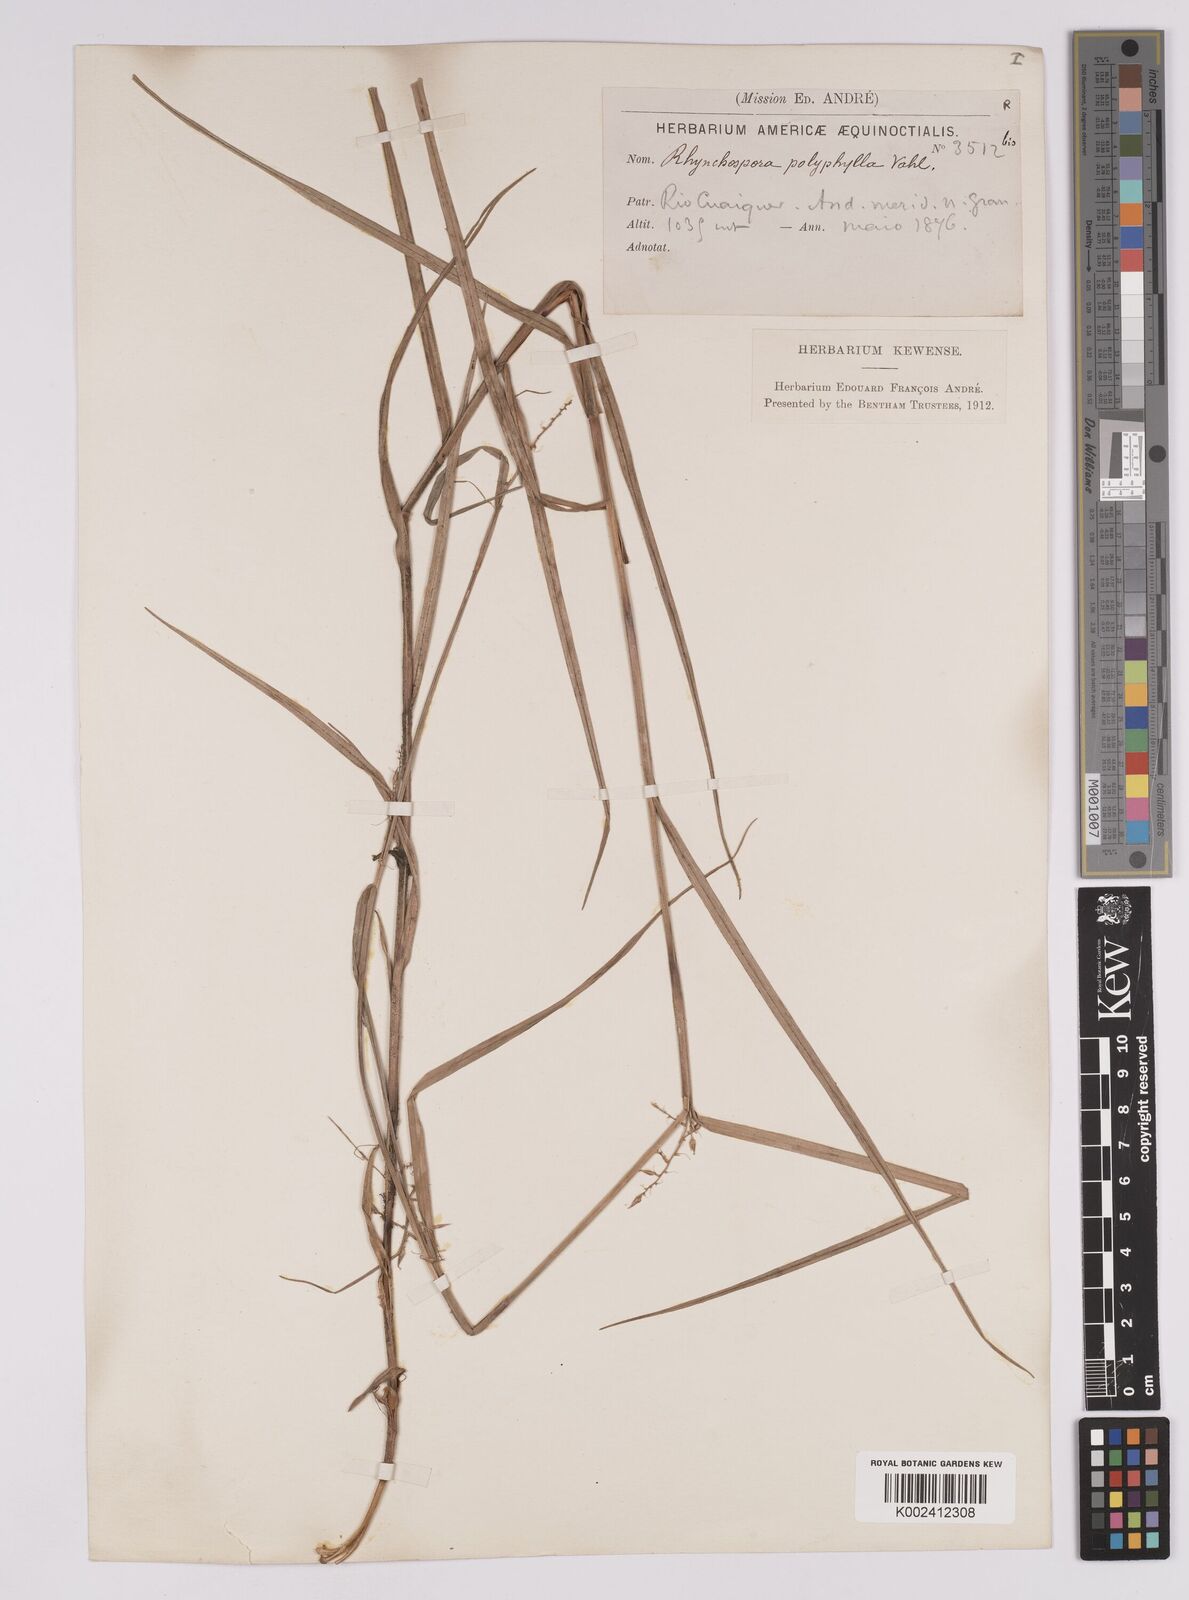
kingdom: Plantae
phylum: Tracheophyta
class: Liliopsida
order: Poales
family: Cyperaceae
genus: Rhynchospora
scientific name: Rhynchospora polyphylla
